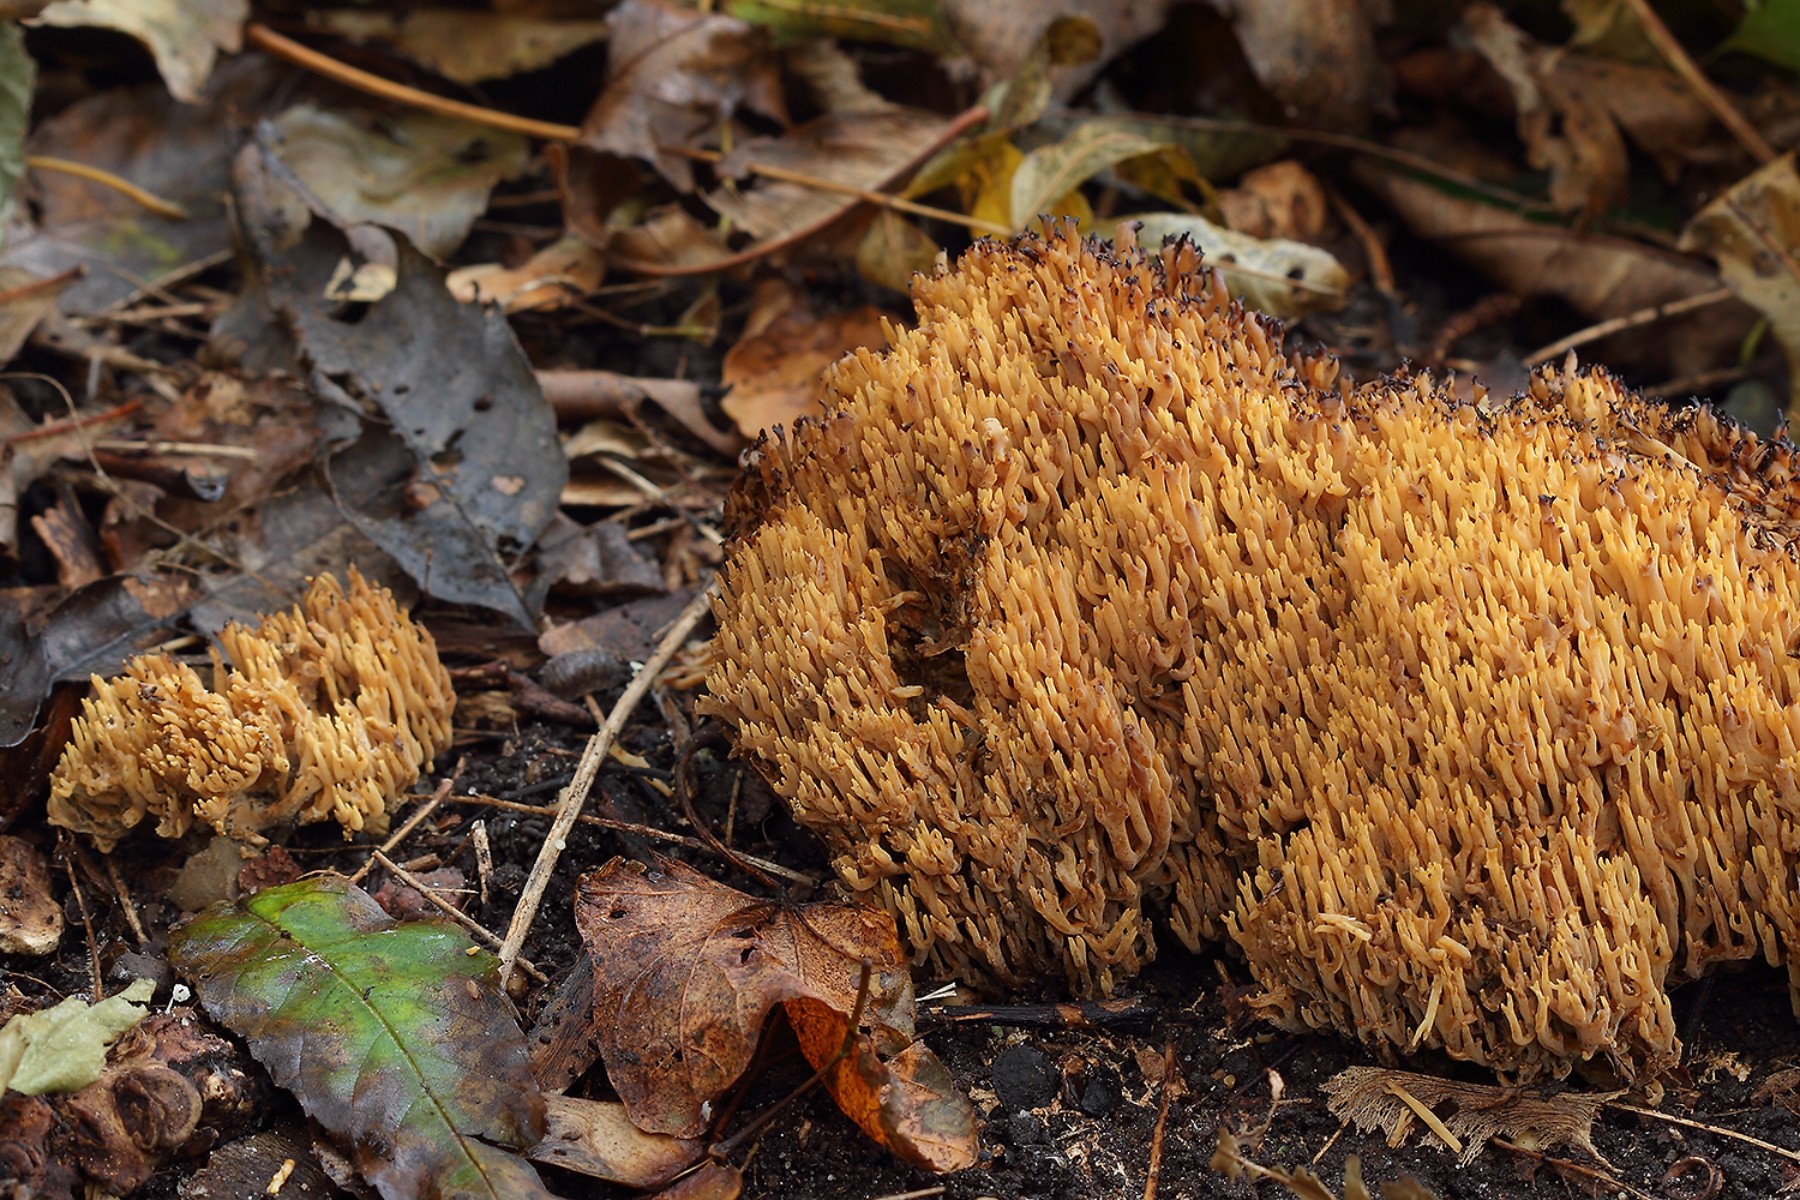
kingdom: Fungi
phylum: Basidiomycota
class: Agaricomycetes
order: Gomphales
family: Gomphaceae
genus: Phaeoclavulina
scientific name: Phaeoclavulina decurrens
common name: krat-koralsvamp
